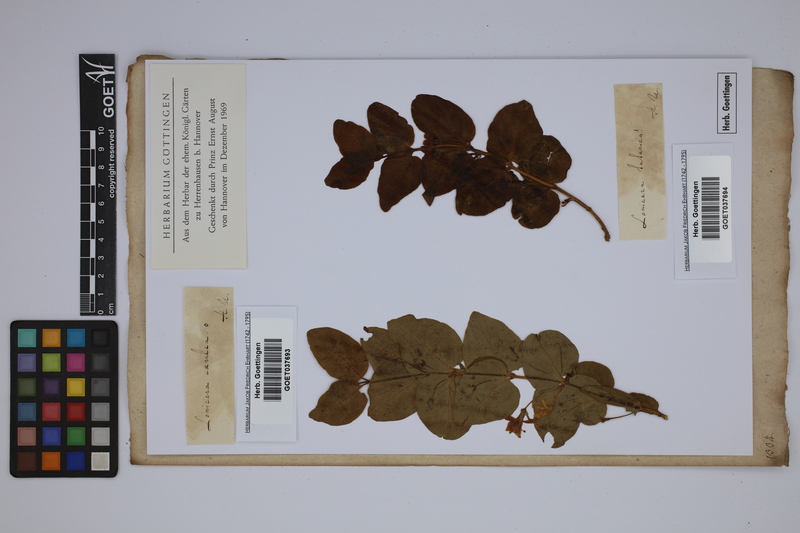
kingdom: Plantae
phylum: Tracheophyta
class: Magnoliopsida
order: Dipsacales
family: Caprifoliaceae
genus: Lonicera
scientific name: Lonicera tatarica
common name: Tatarian honeysuckle
